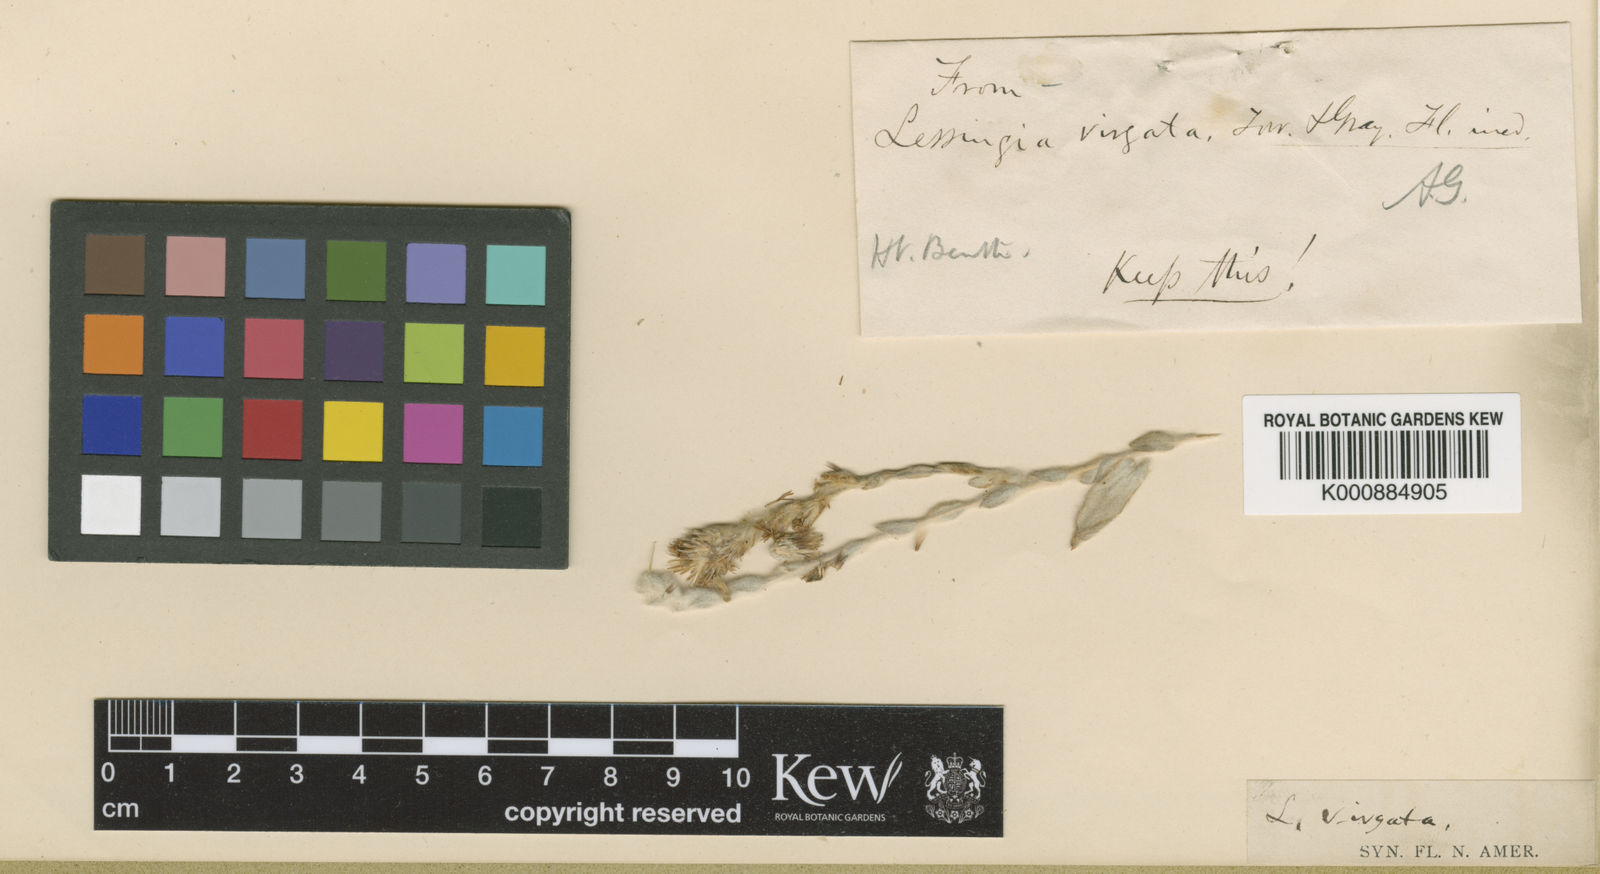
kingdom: Plantae
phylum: Tracheophyta
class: Magnoliopsida
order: Asterales
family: Asteraceae
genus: Lessingia
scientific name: Lessingia
